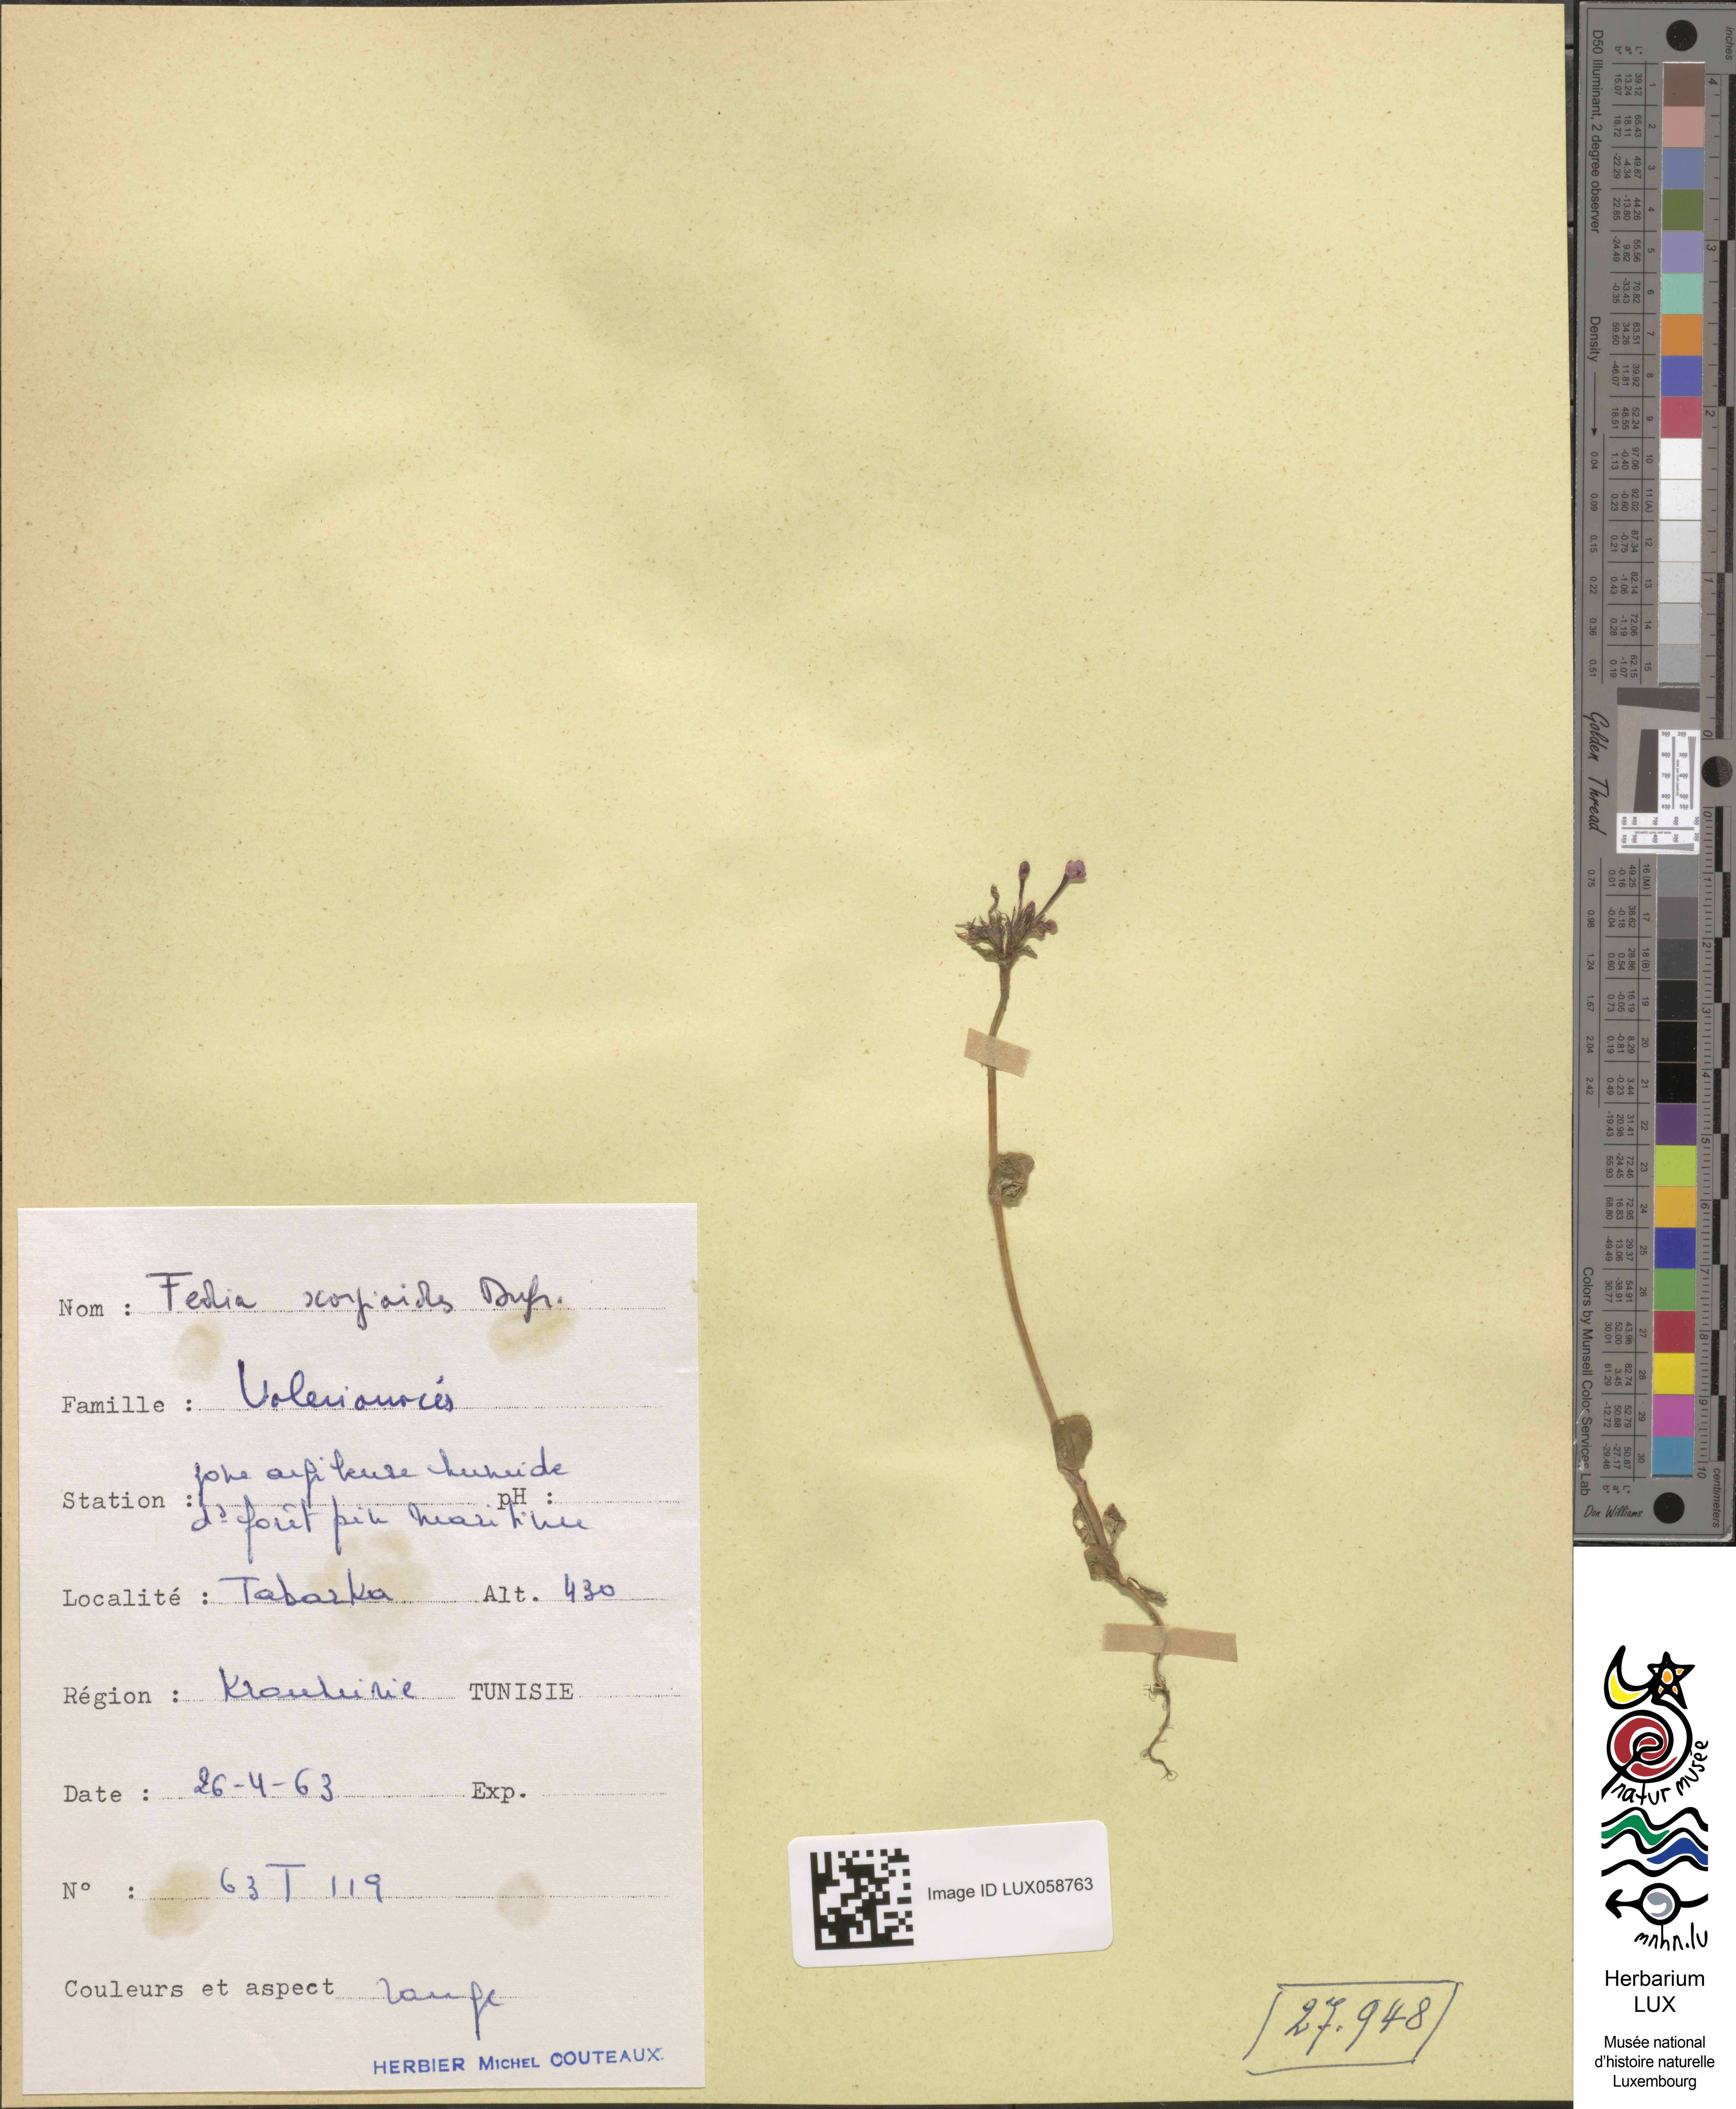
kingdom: Plantae
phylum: Tracheophyta
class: Magnoliopsida
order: Dipsacales
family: Caprifoliaceae
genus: Fedia
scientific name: Fedia cornucopiae
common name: Horn-of-plenty
